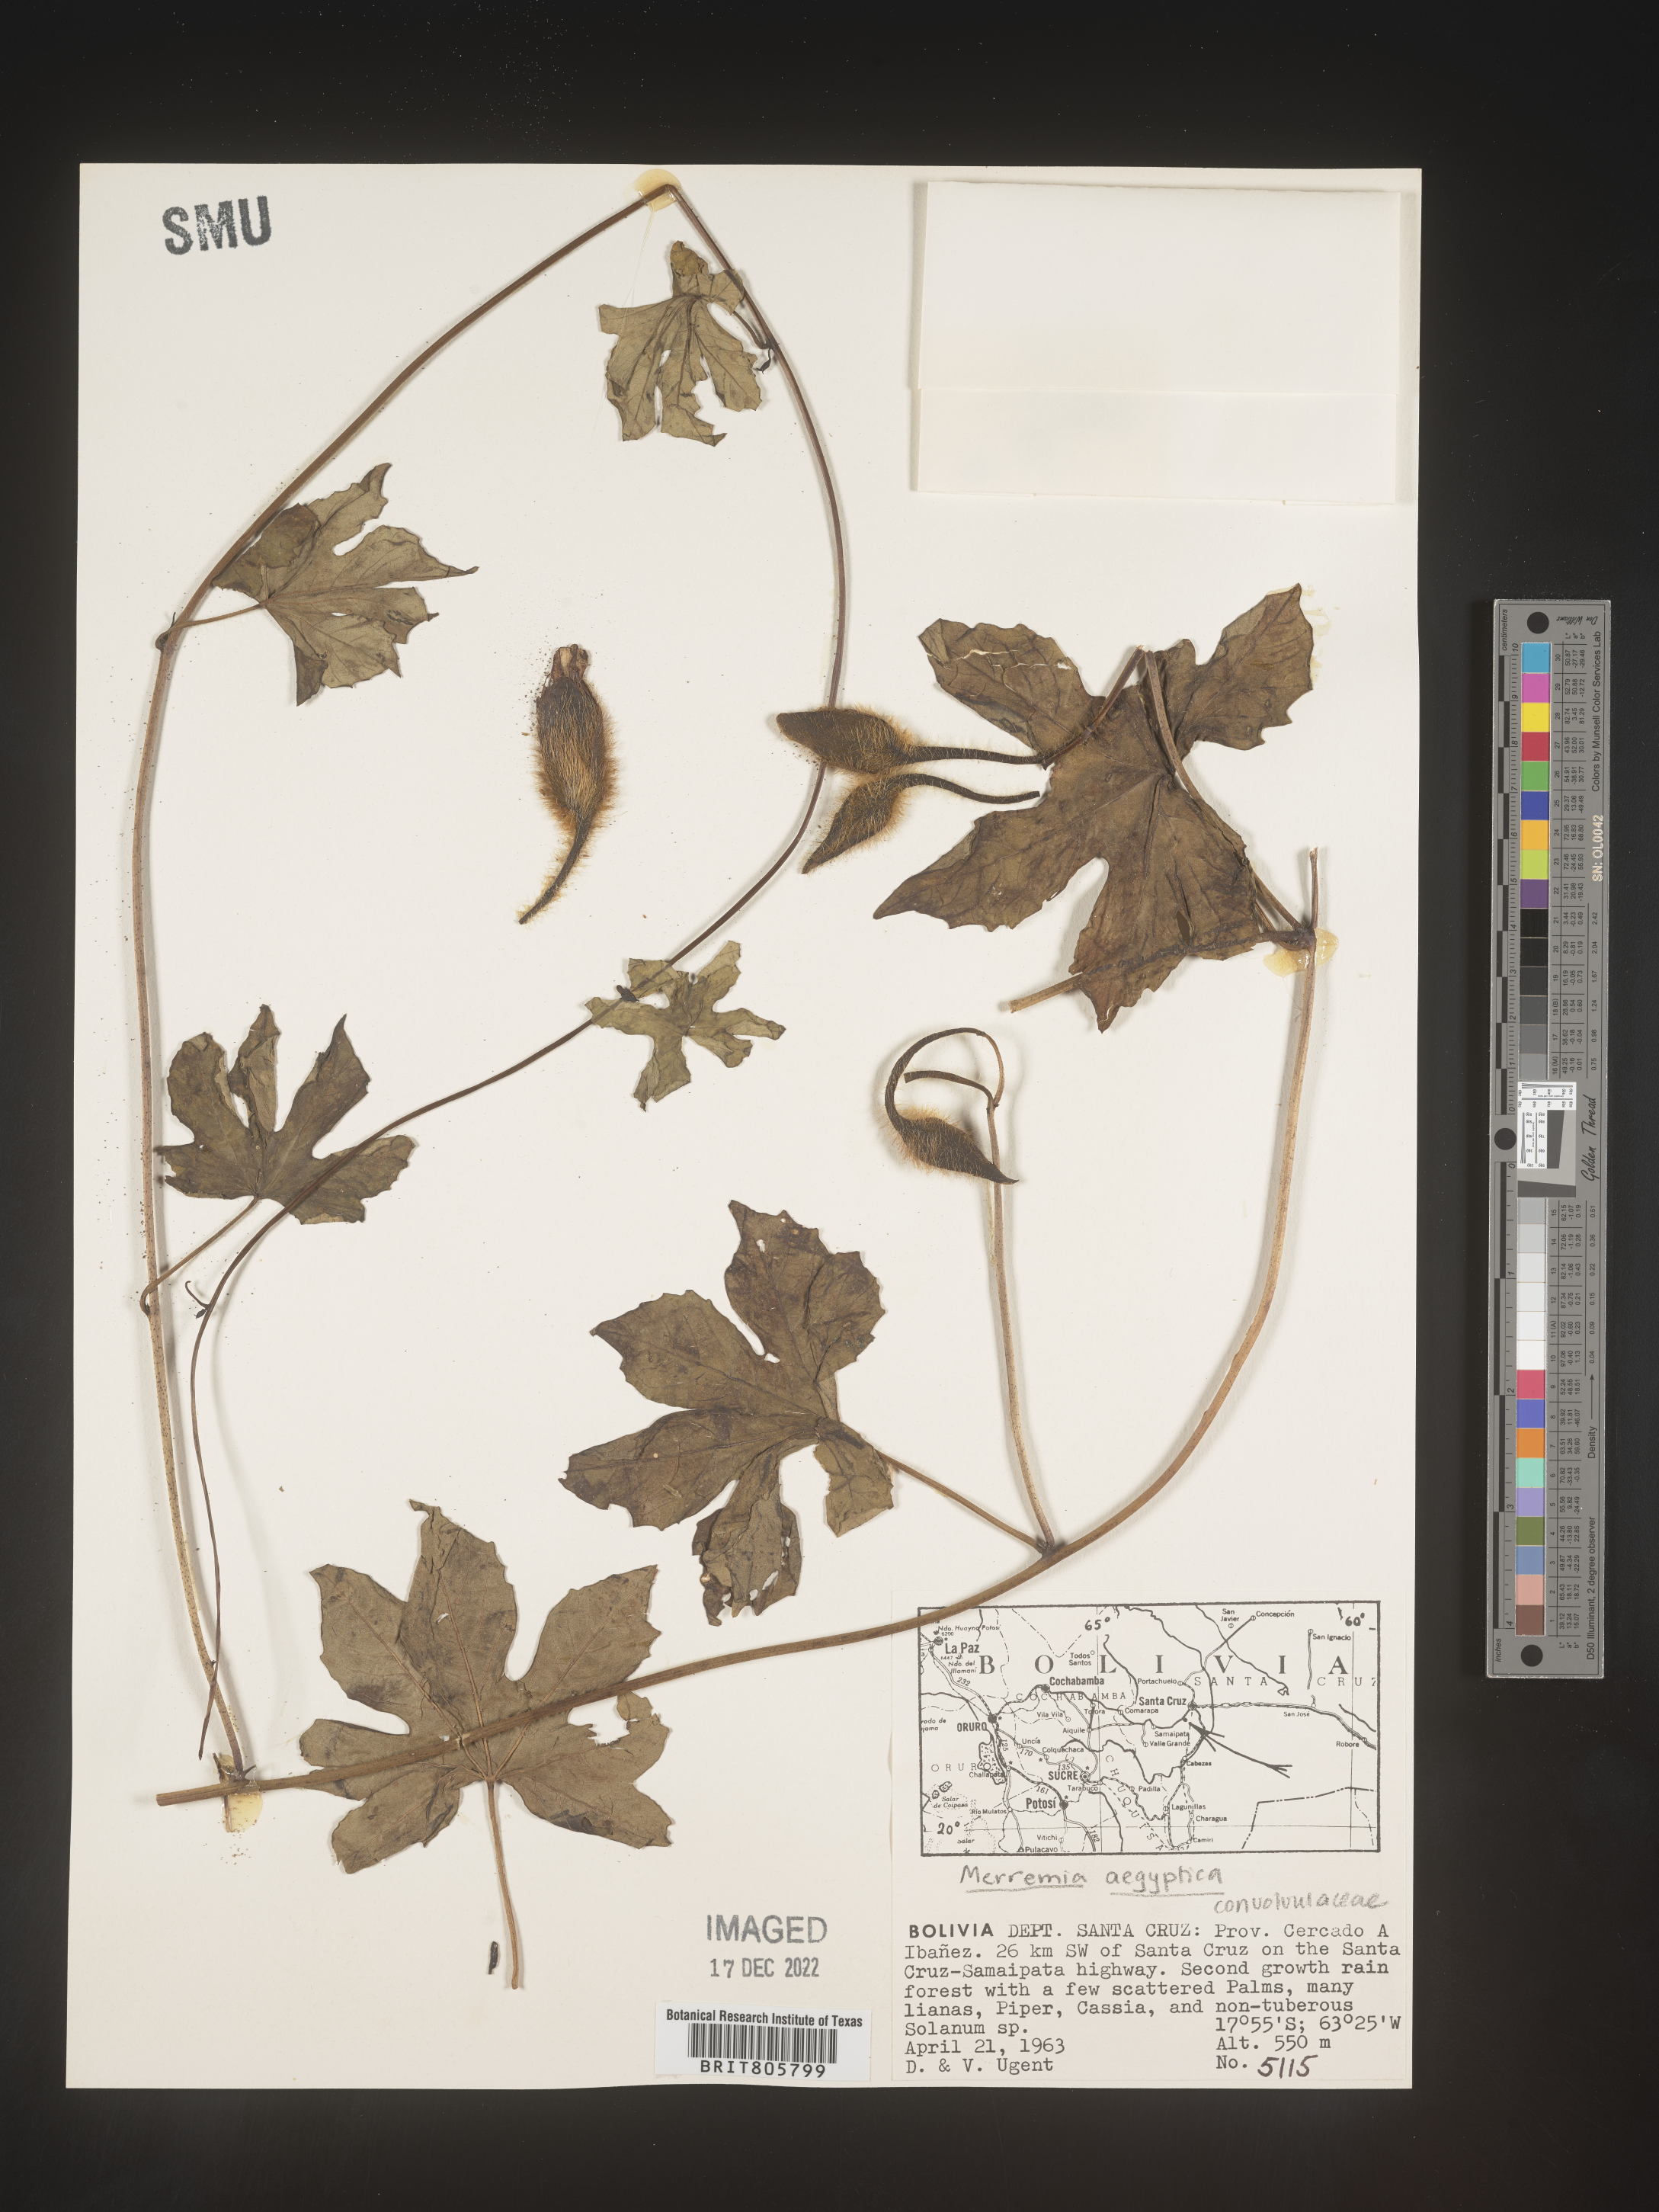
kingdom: Plantae
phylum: Tracheophyta
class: Magnoliopsida
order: Solanales
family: Convolvulaceae
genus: Merremia
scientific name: Merremia
